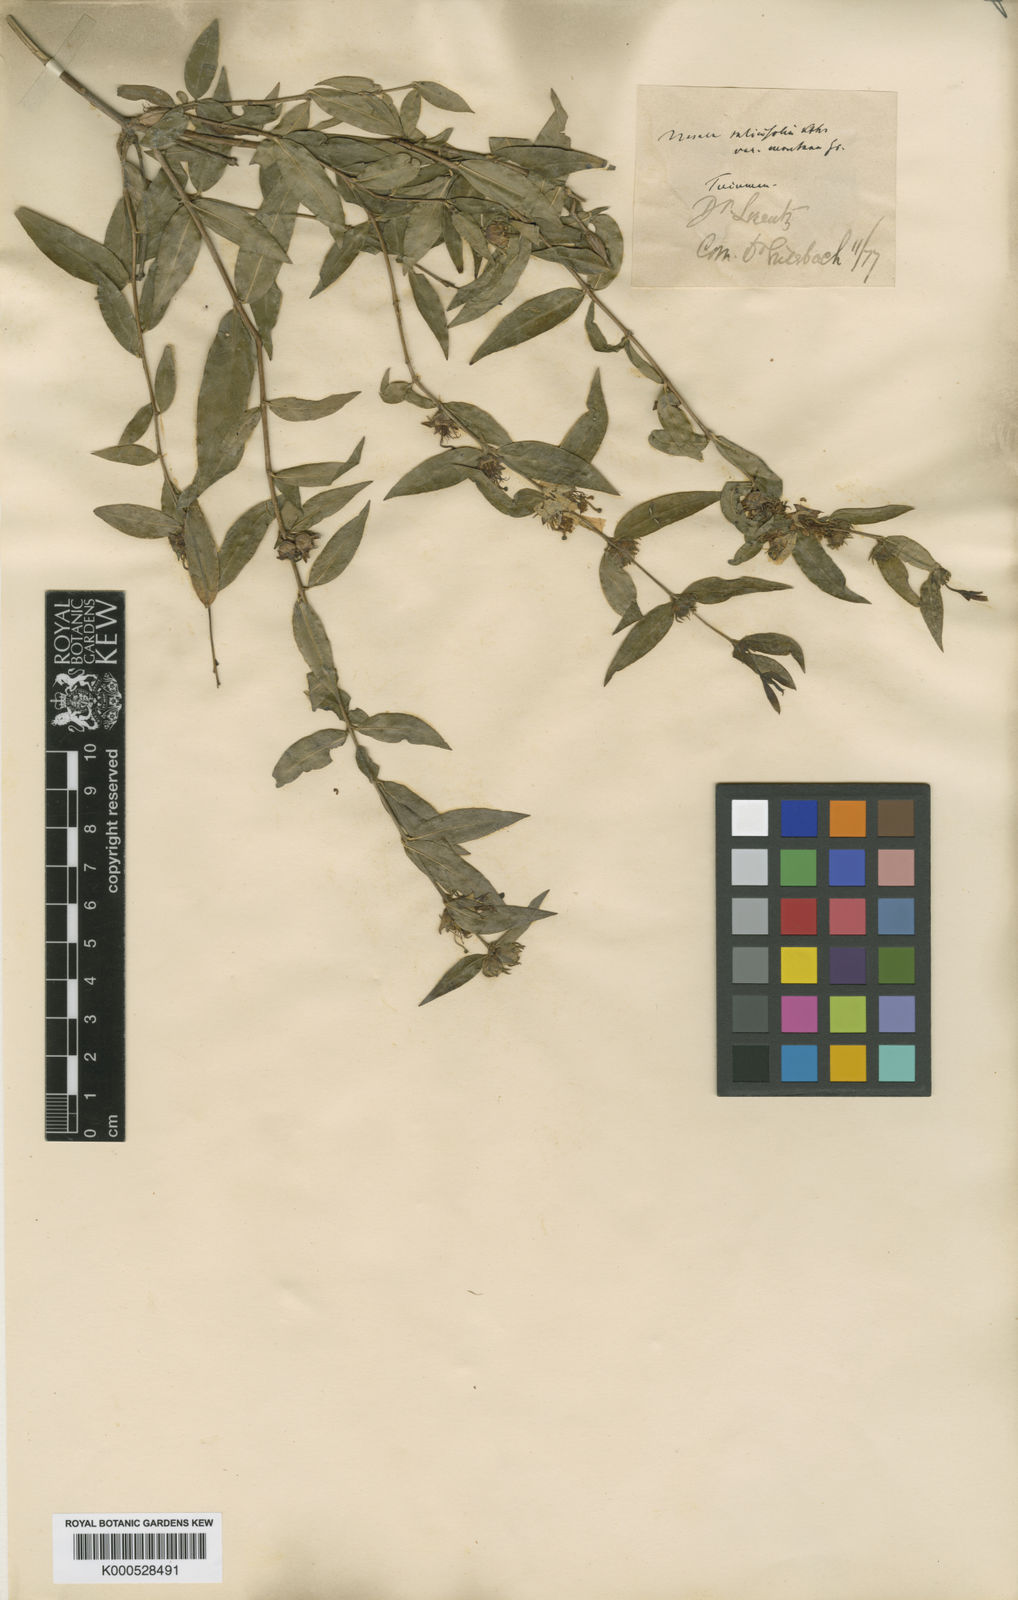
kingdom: Plantae
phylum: Tracheophyta
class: Magnoliopsida
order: Myrtales
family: Lythraceae
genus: Heimia
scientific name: Heimia montana
